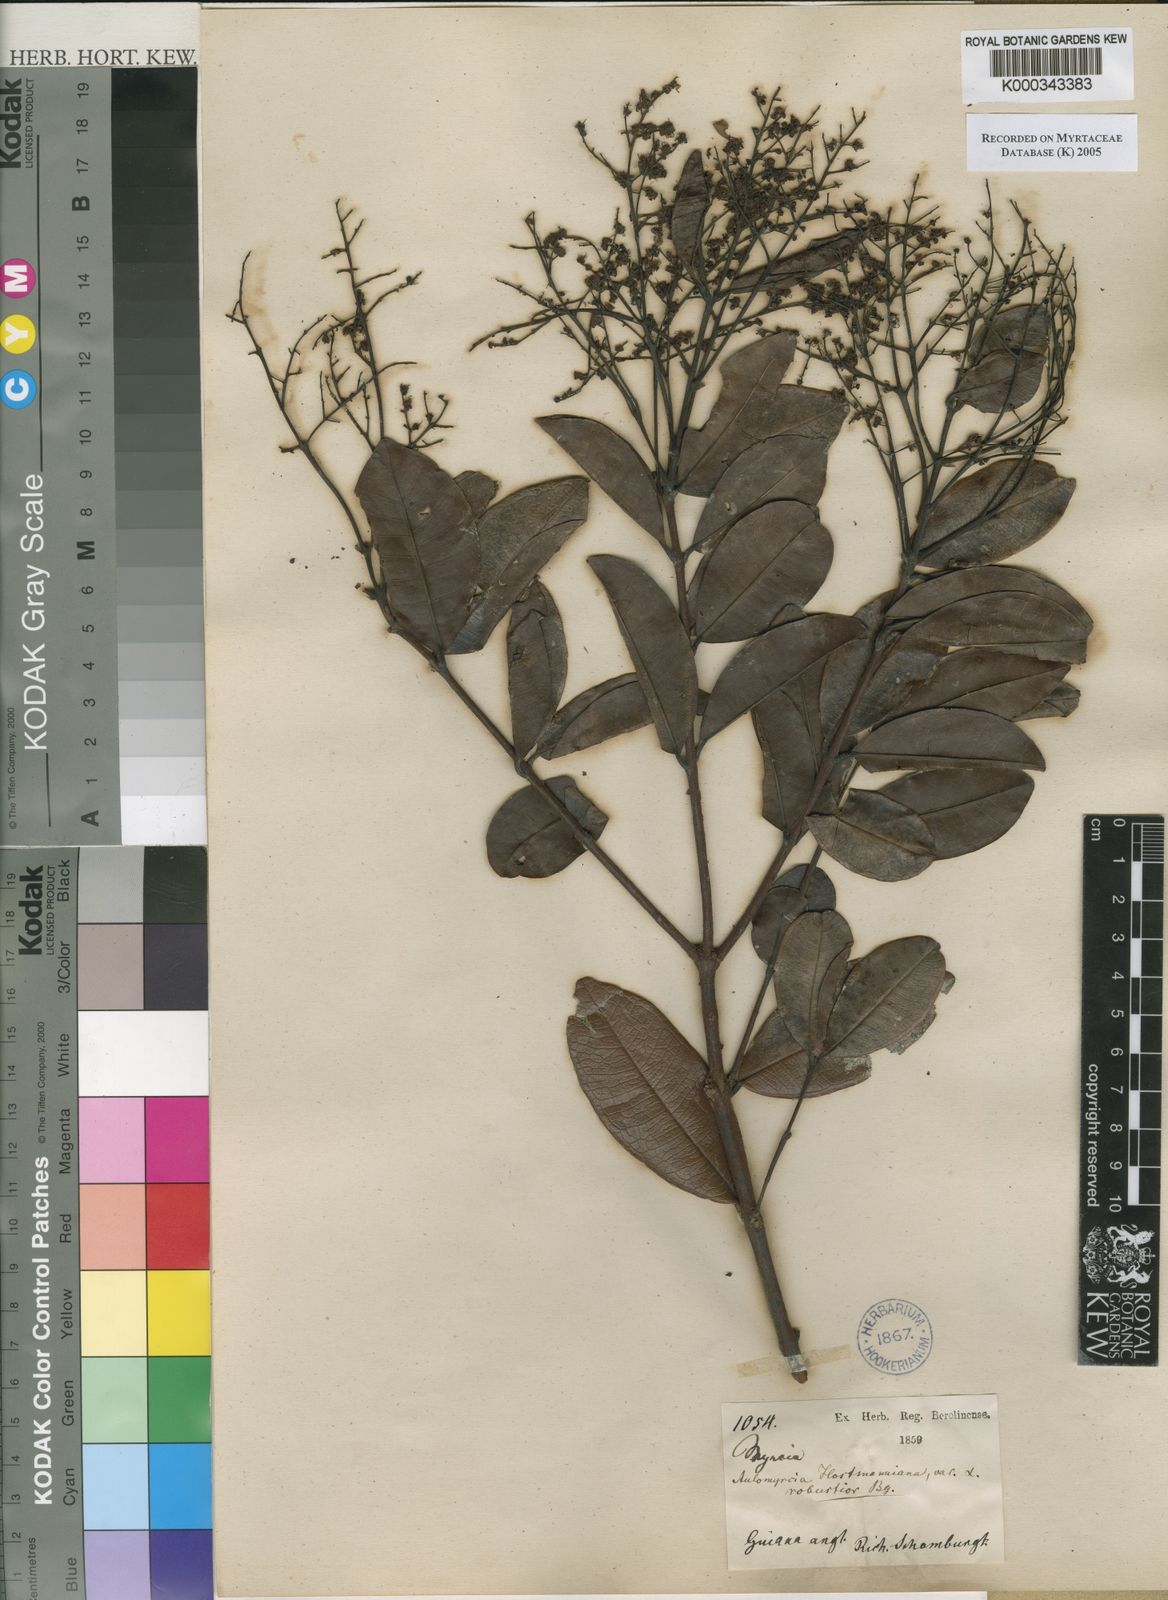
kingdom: Plantae
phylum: Tracheophyta
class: Magnoliopsida
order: Myrtales
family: Myrtaceae
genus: Myrcia
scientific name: Myrcia amazonica
